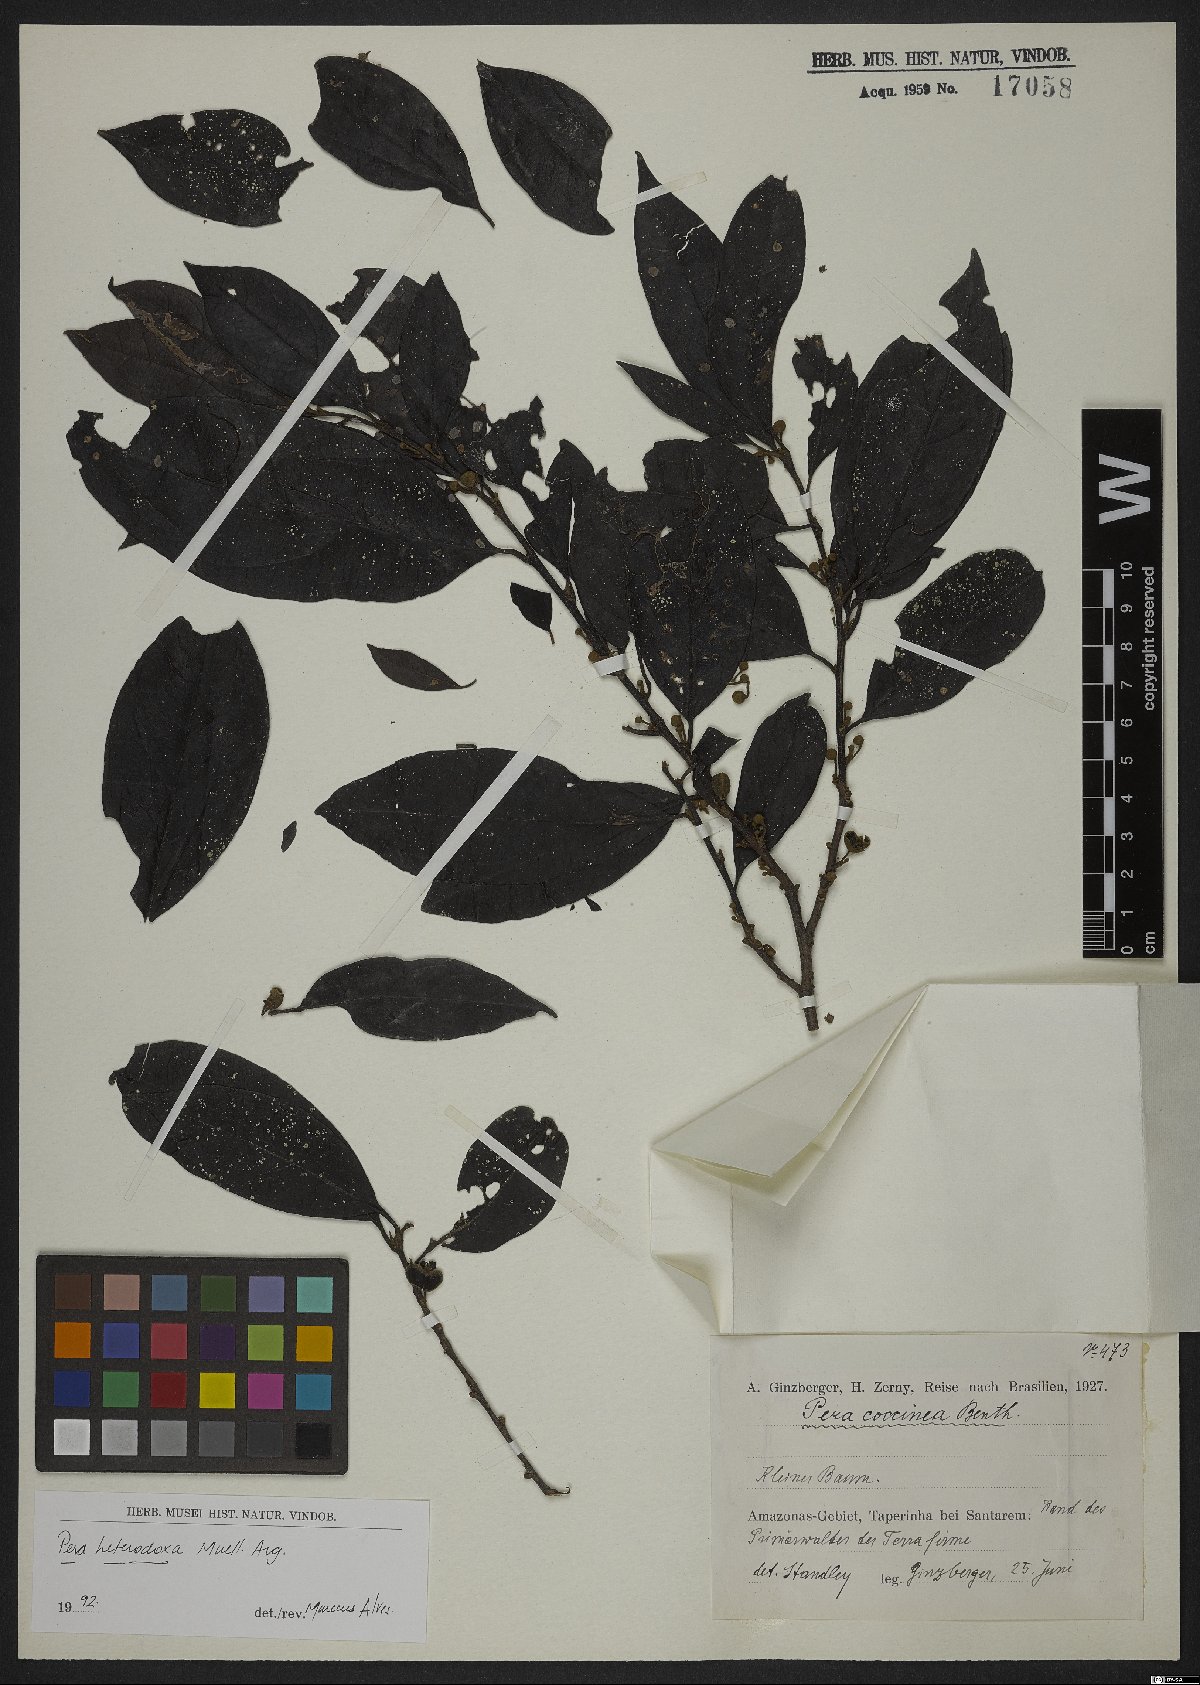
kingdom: Plantae
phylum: Tracheophyta
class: Magnoliopsida
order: Malpighiales
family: Peraceae
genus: Pera
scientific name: Pera distichophylla
